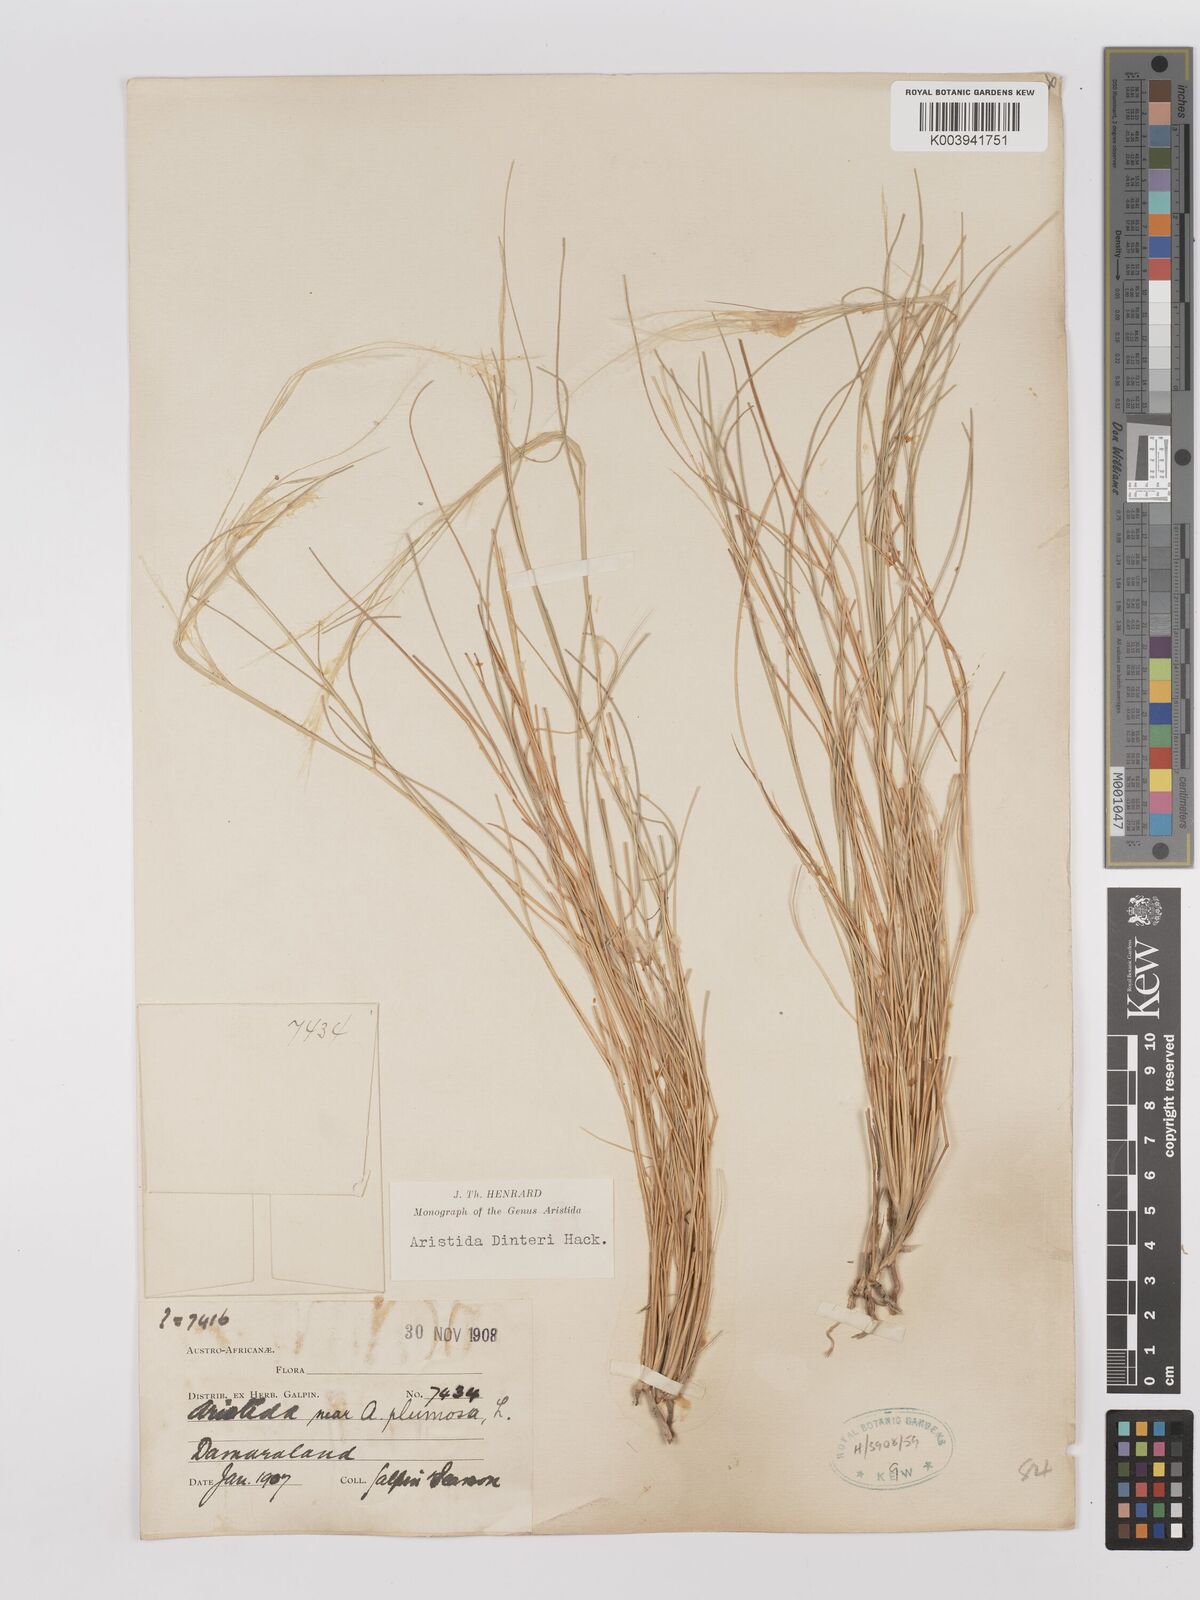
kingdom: Plantae
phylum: Tracheophyta
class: Liliopsida
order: Poales
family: Poaceae
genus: Stipagrostis
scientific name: Stipagrostis dinteri
